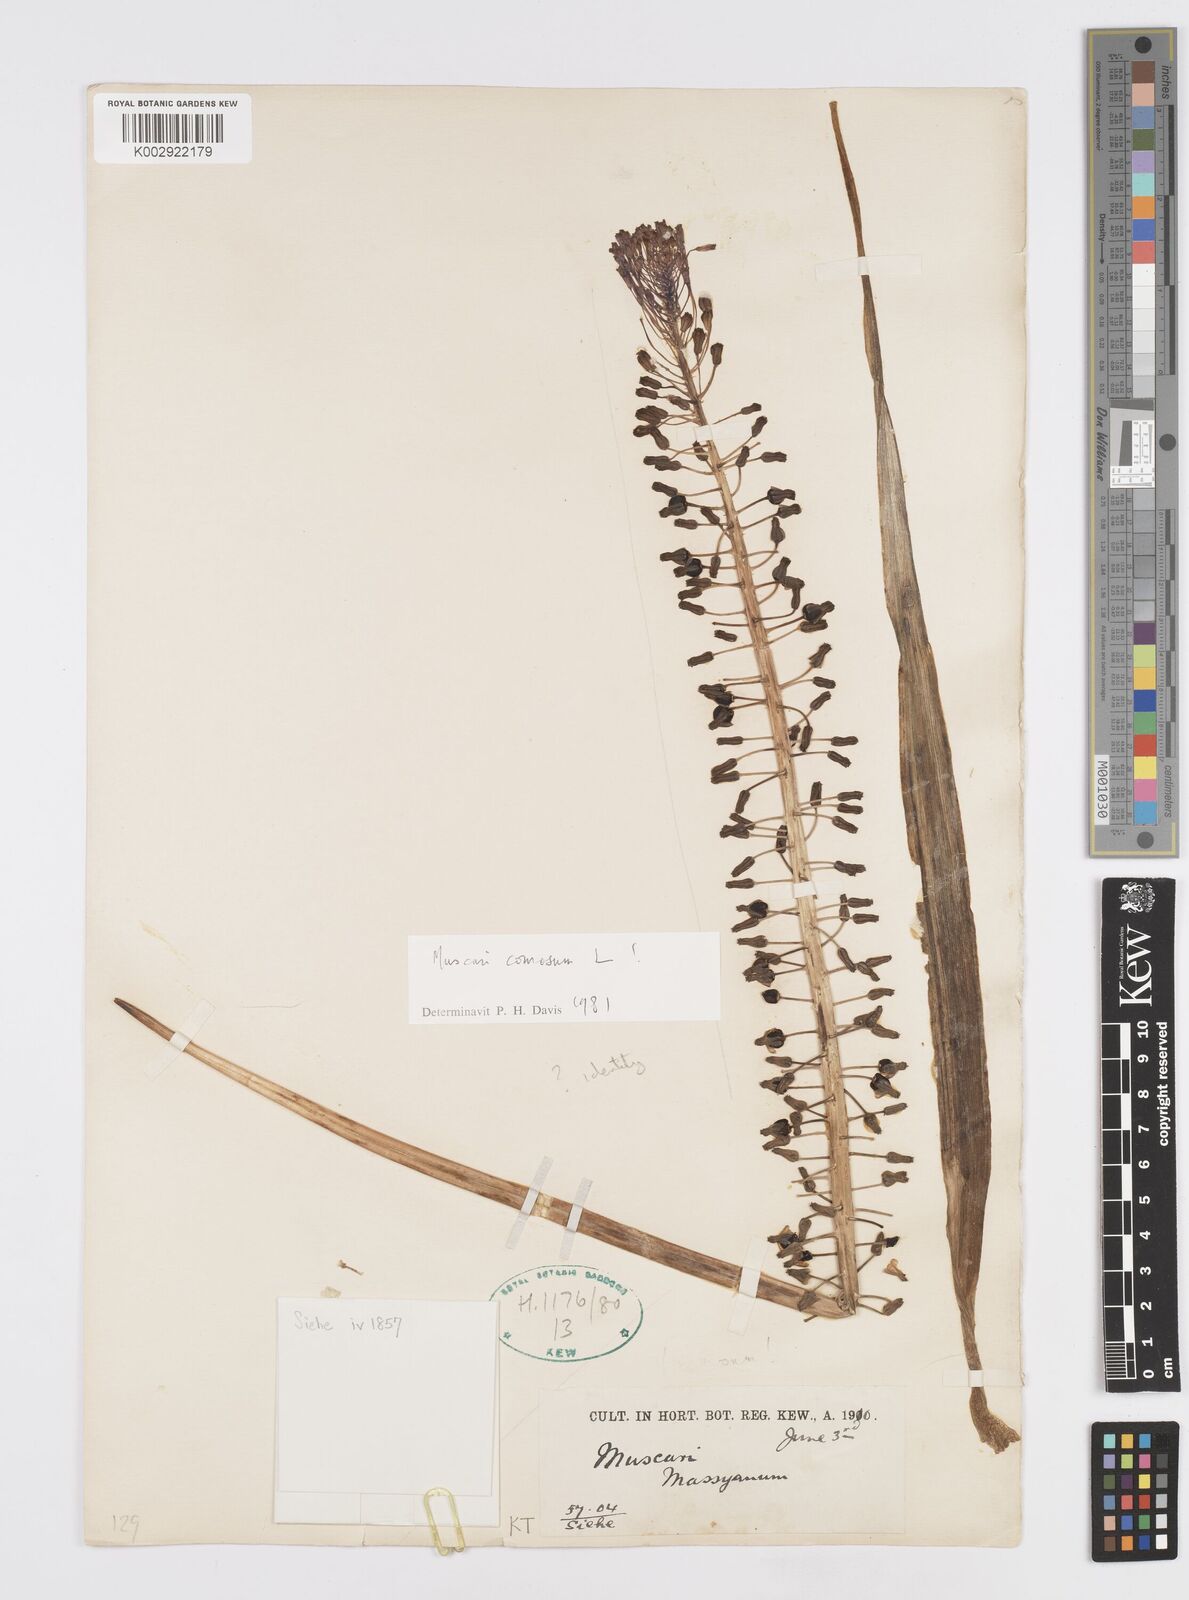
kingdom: Plantae
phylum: Tracheophyta
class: Liliopsida
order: Asparagales
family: Asparagaceae
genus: Muscari
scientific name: Muscari comosum
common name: Tassel hyacinth
